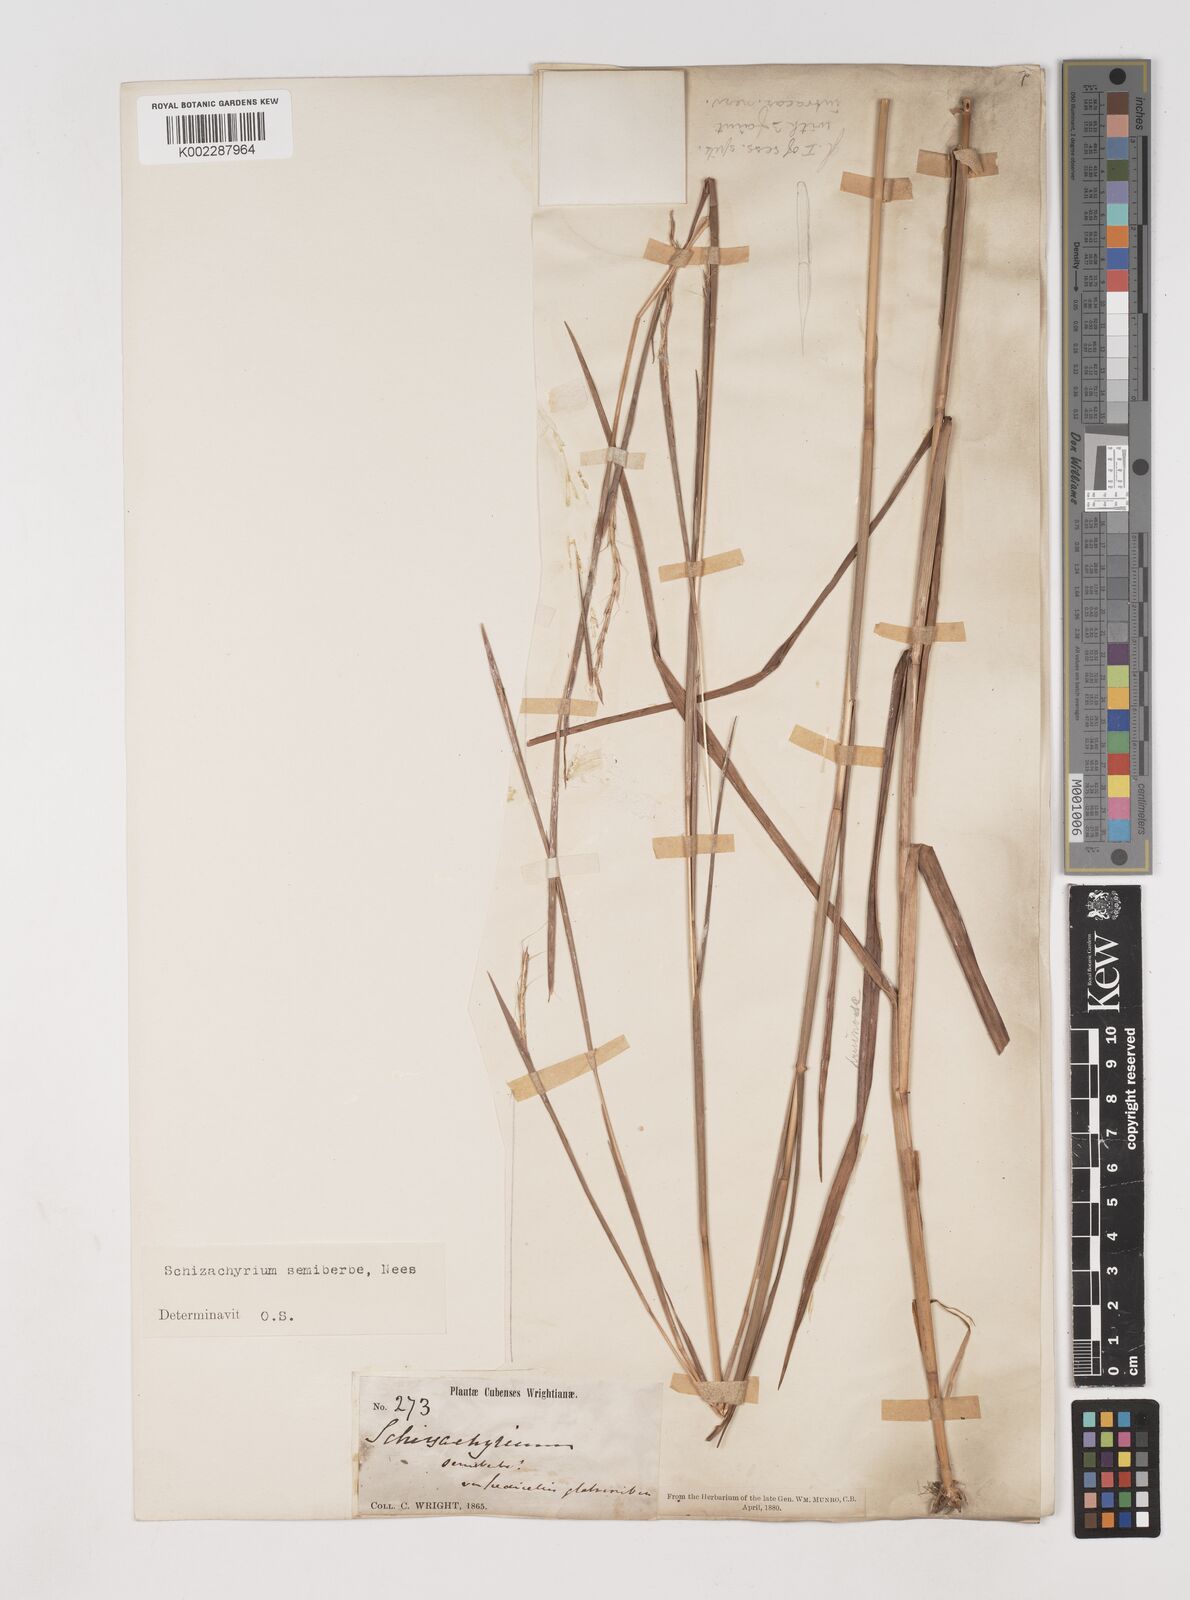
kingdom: Plantae
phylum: Tracheophyta
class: Liliopsida
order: Poales
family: Poaceae
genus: Schizachyrium
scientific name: Schizachyrium sanguineum
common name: Crimson bluestem
